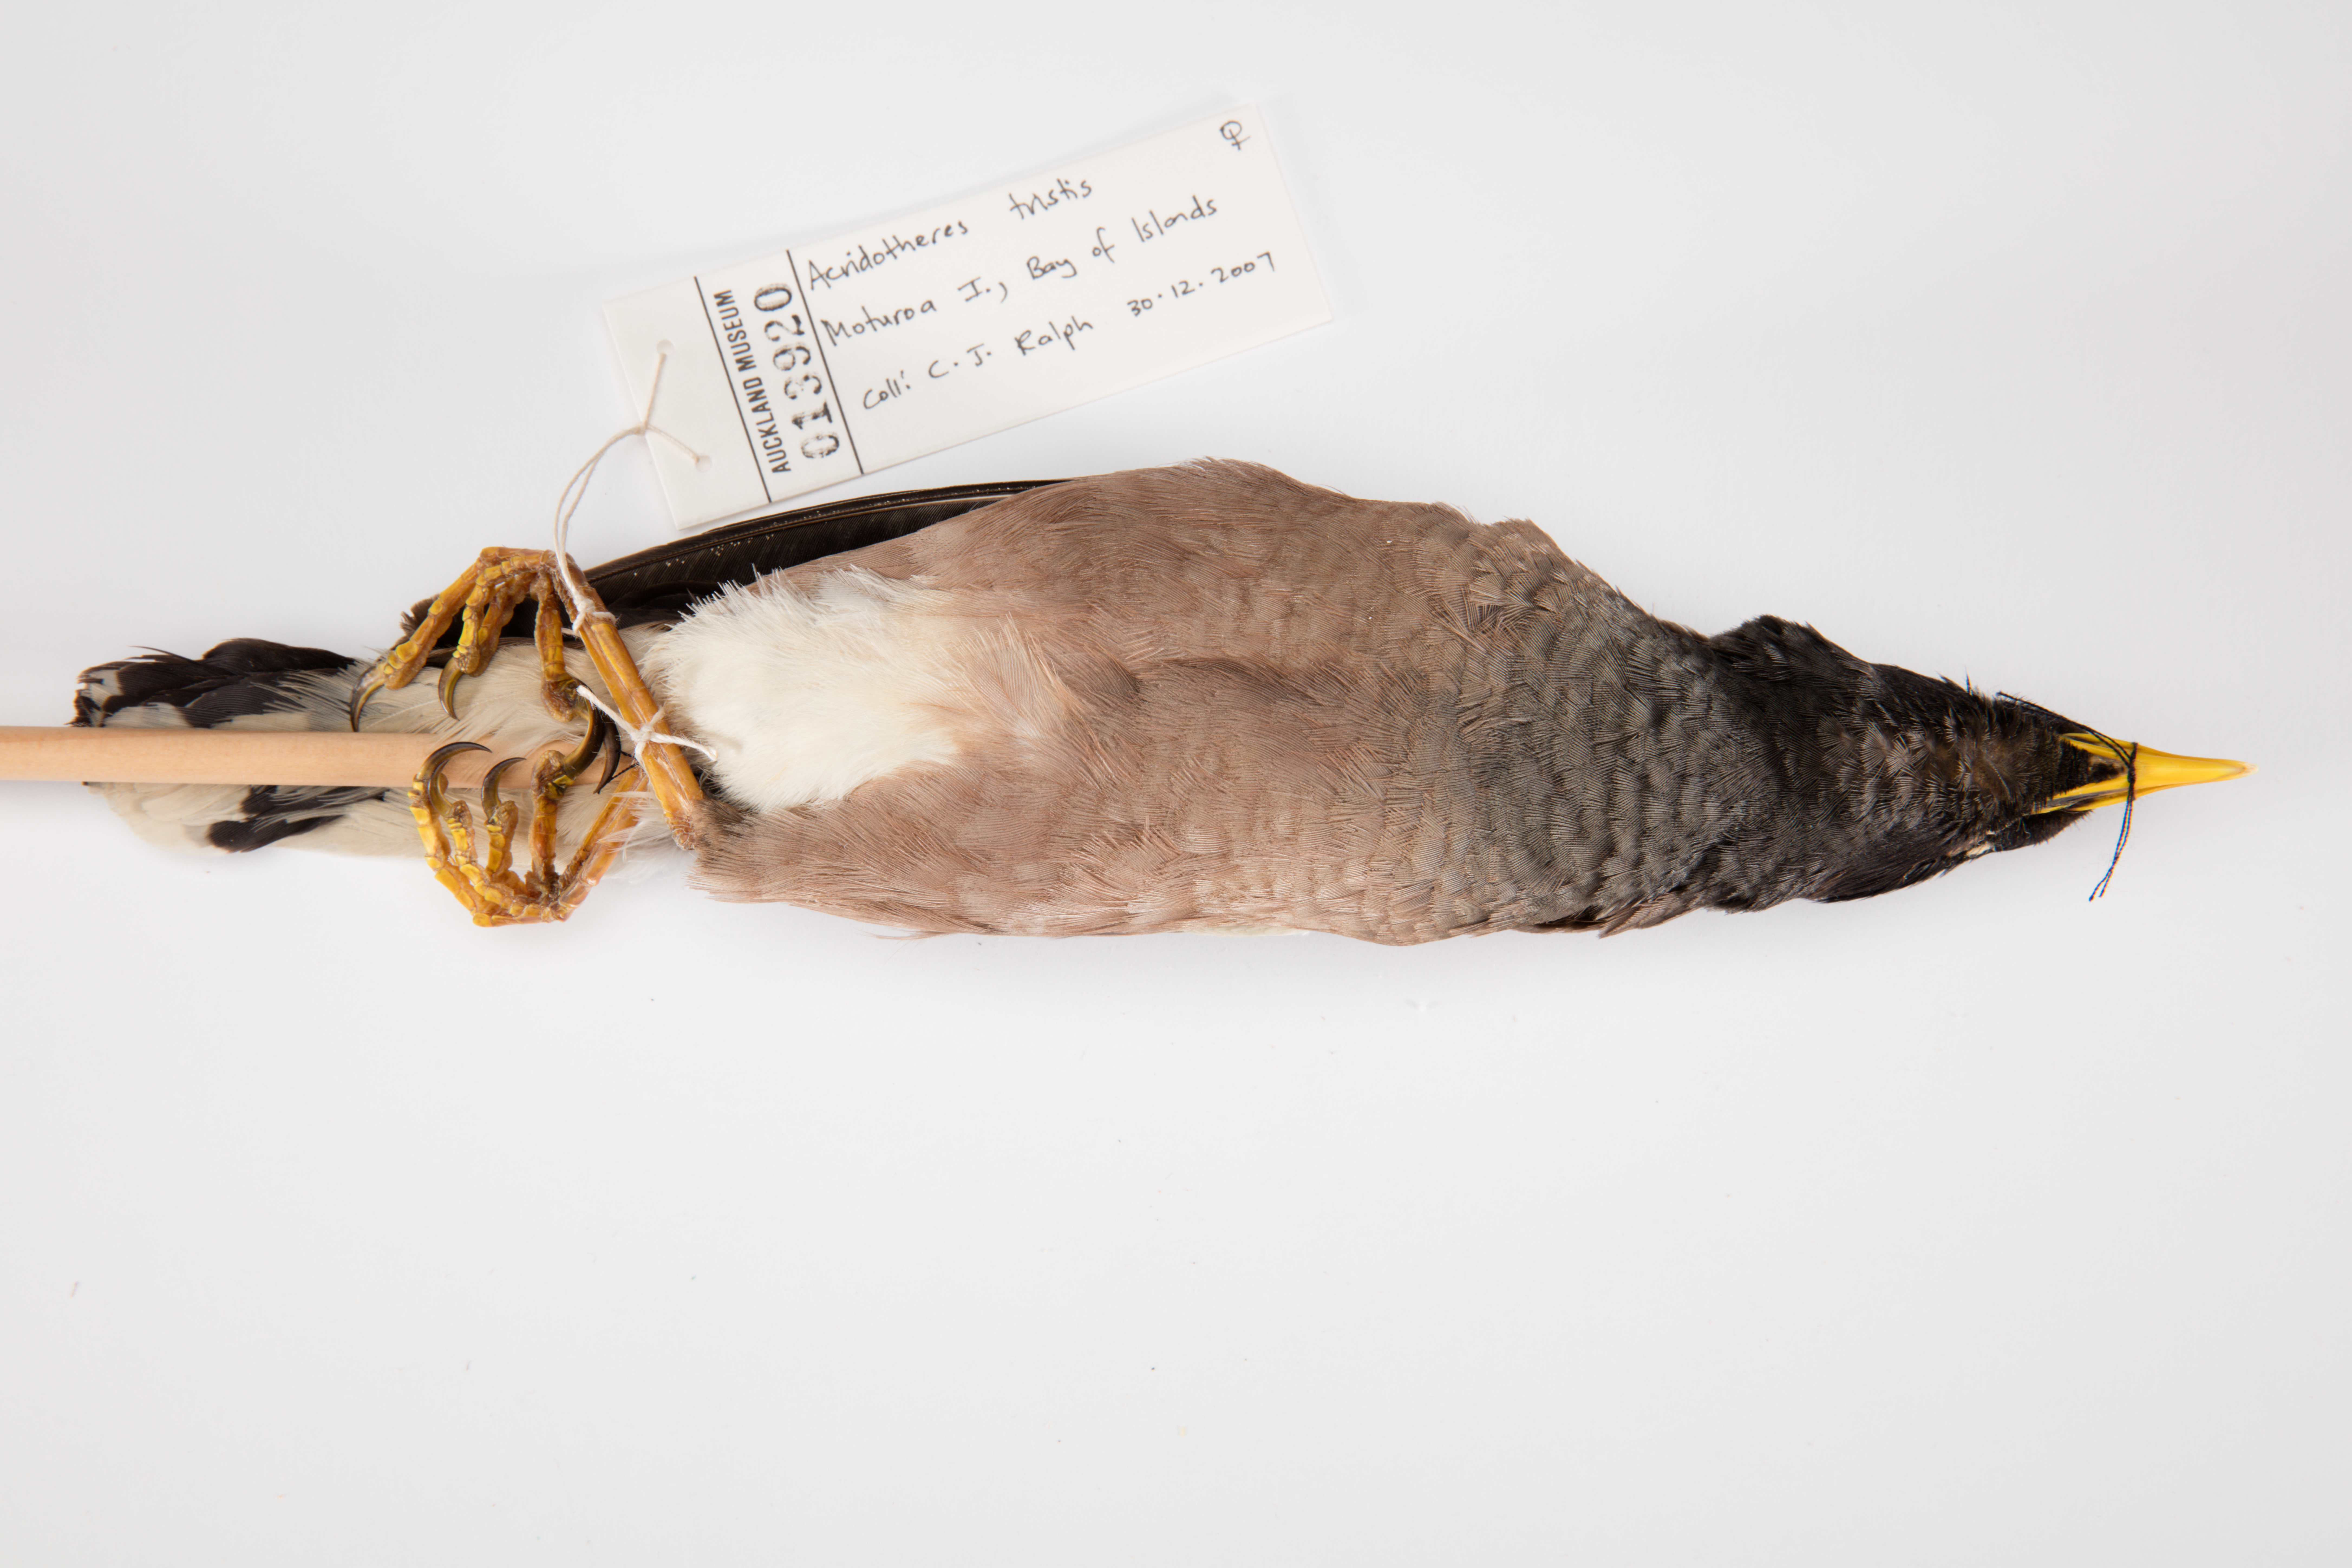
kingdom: Animalia
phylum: Chordata
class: Aves
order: Passeriformes
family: Sturnidae
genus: Acridotheres
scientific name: Acridotheres tristis
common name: Common myna
